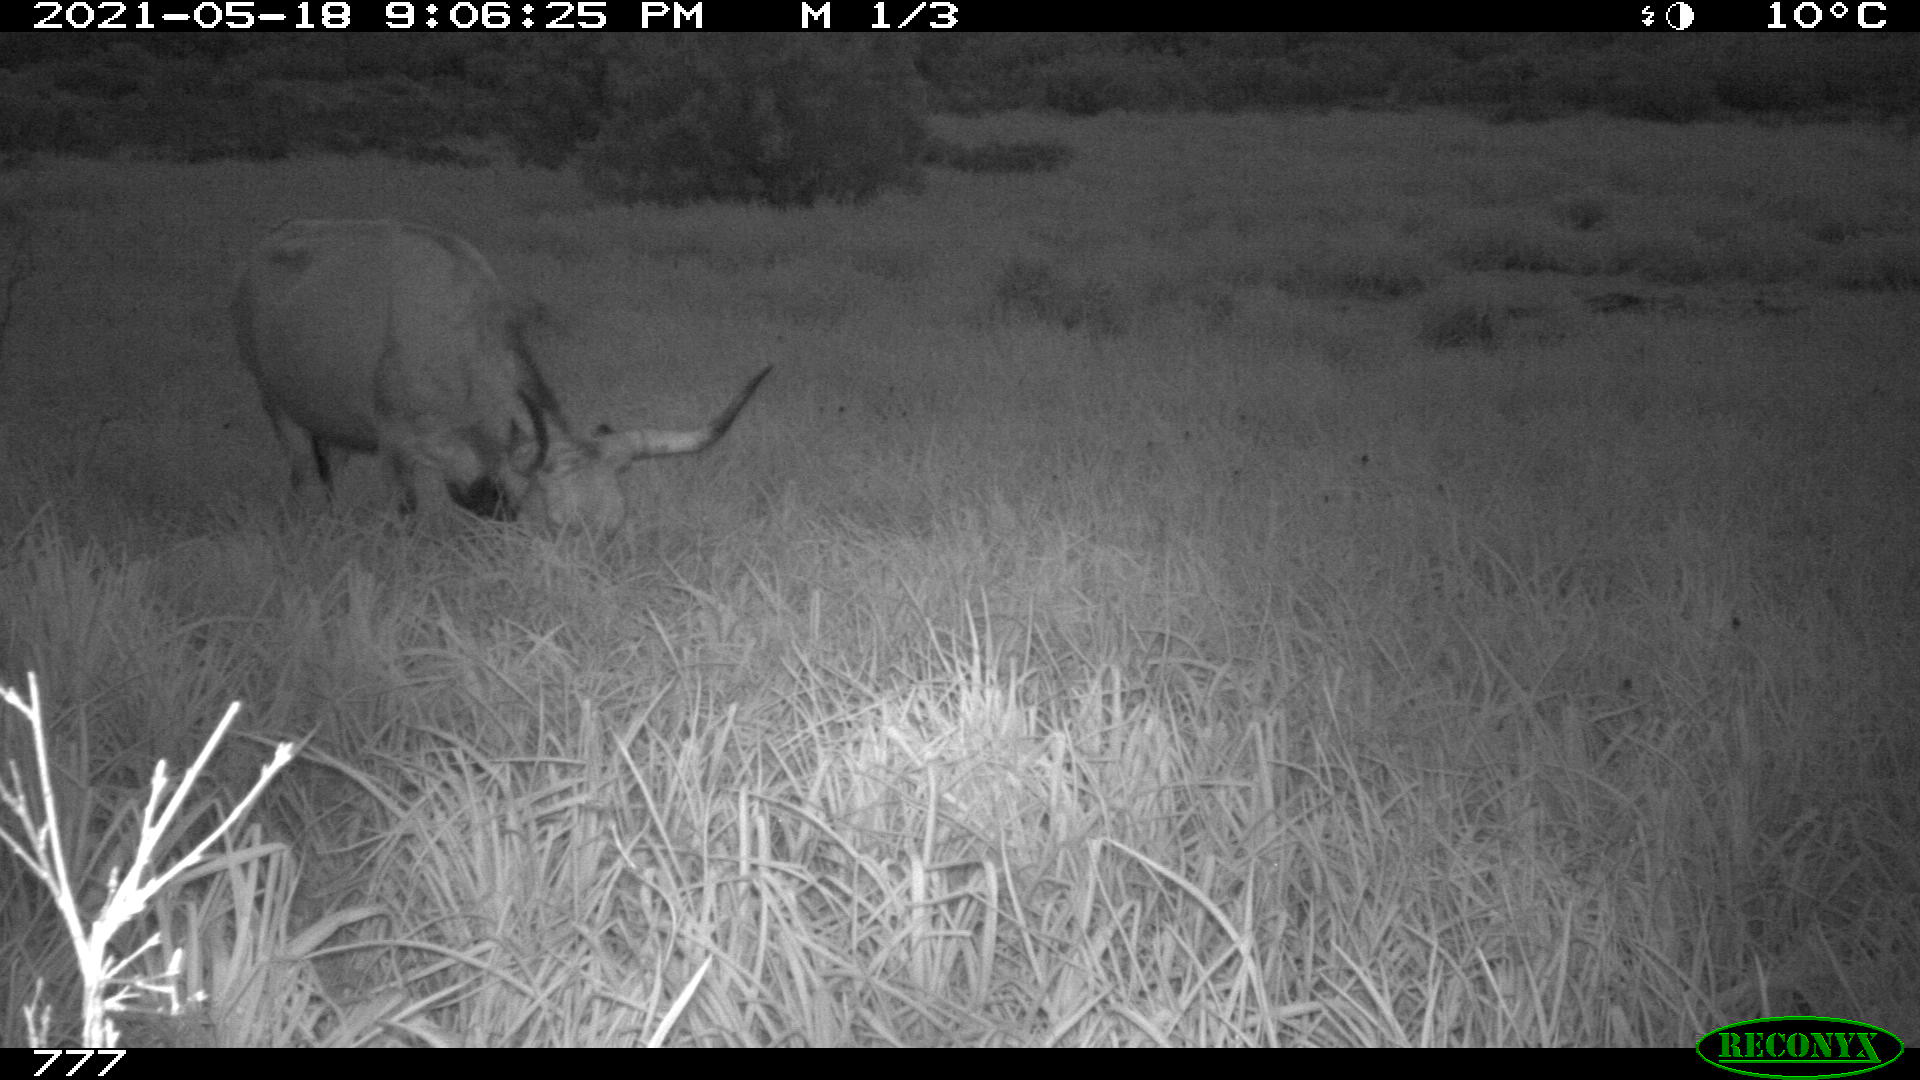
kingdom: Animalia
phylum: Chordata
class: Mammalia
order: Artiodactyla
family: Bovidae
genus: Bos
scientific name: Bos taurus
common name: Domesticated cattle
